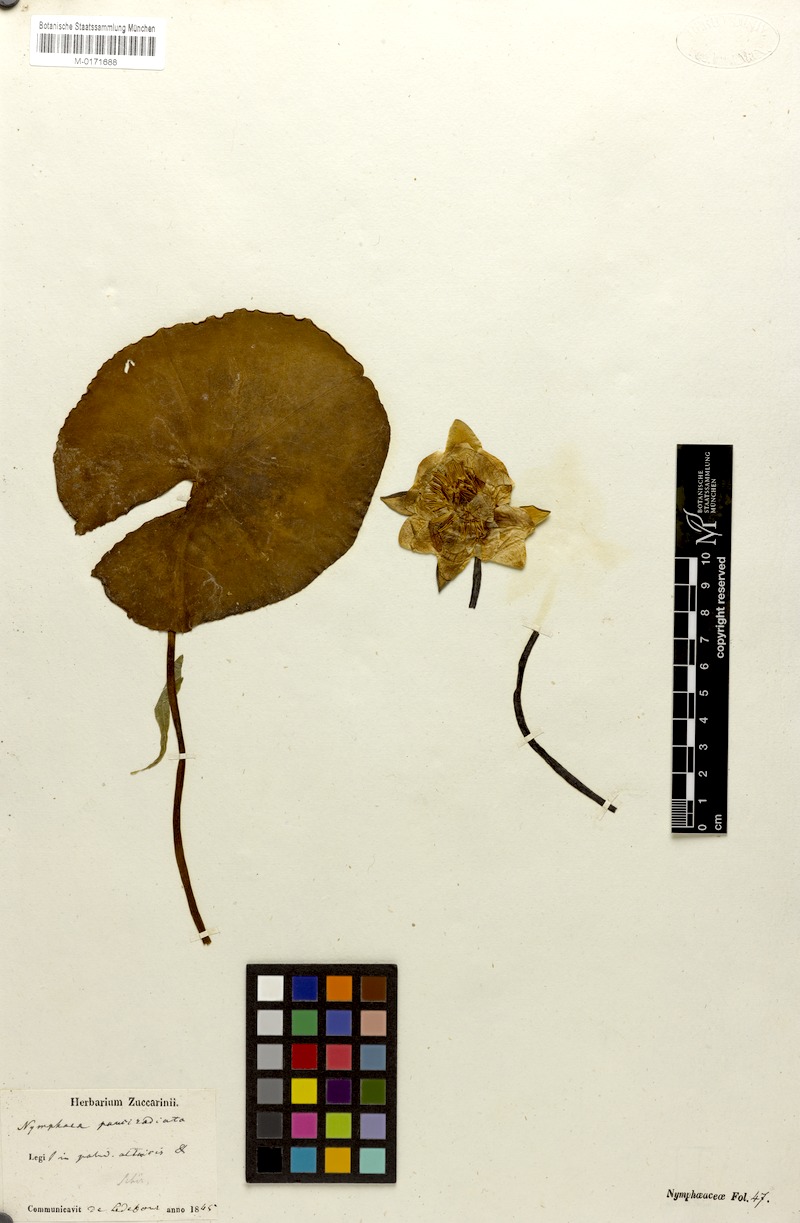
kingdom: Plantae
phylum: Tracheophyta
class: Magnoliopsida
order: Nymphaeales
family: Nymphaeaceae
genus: Nymphaea
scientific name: Nymphaea candida
